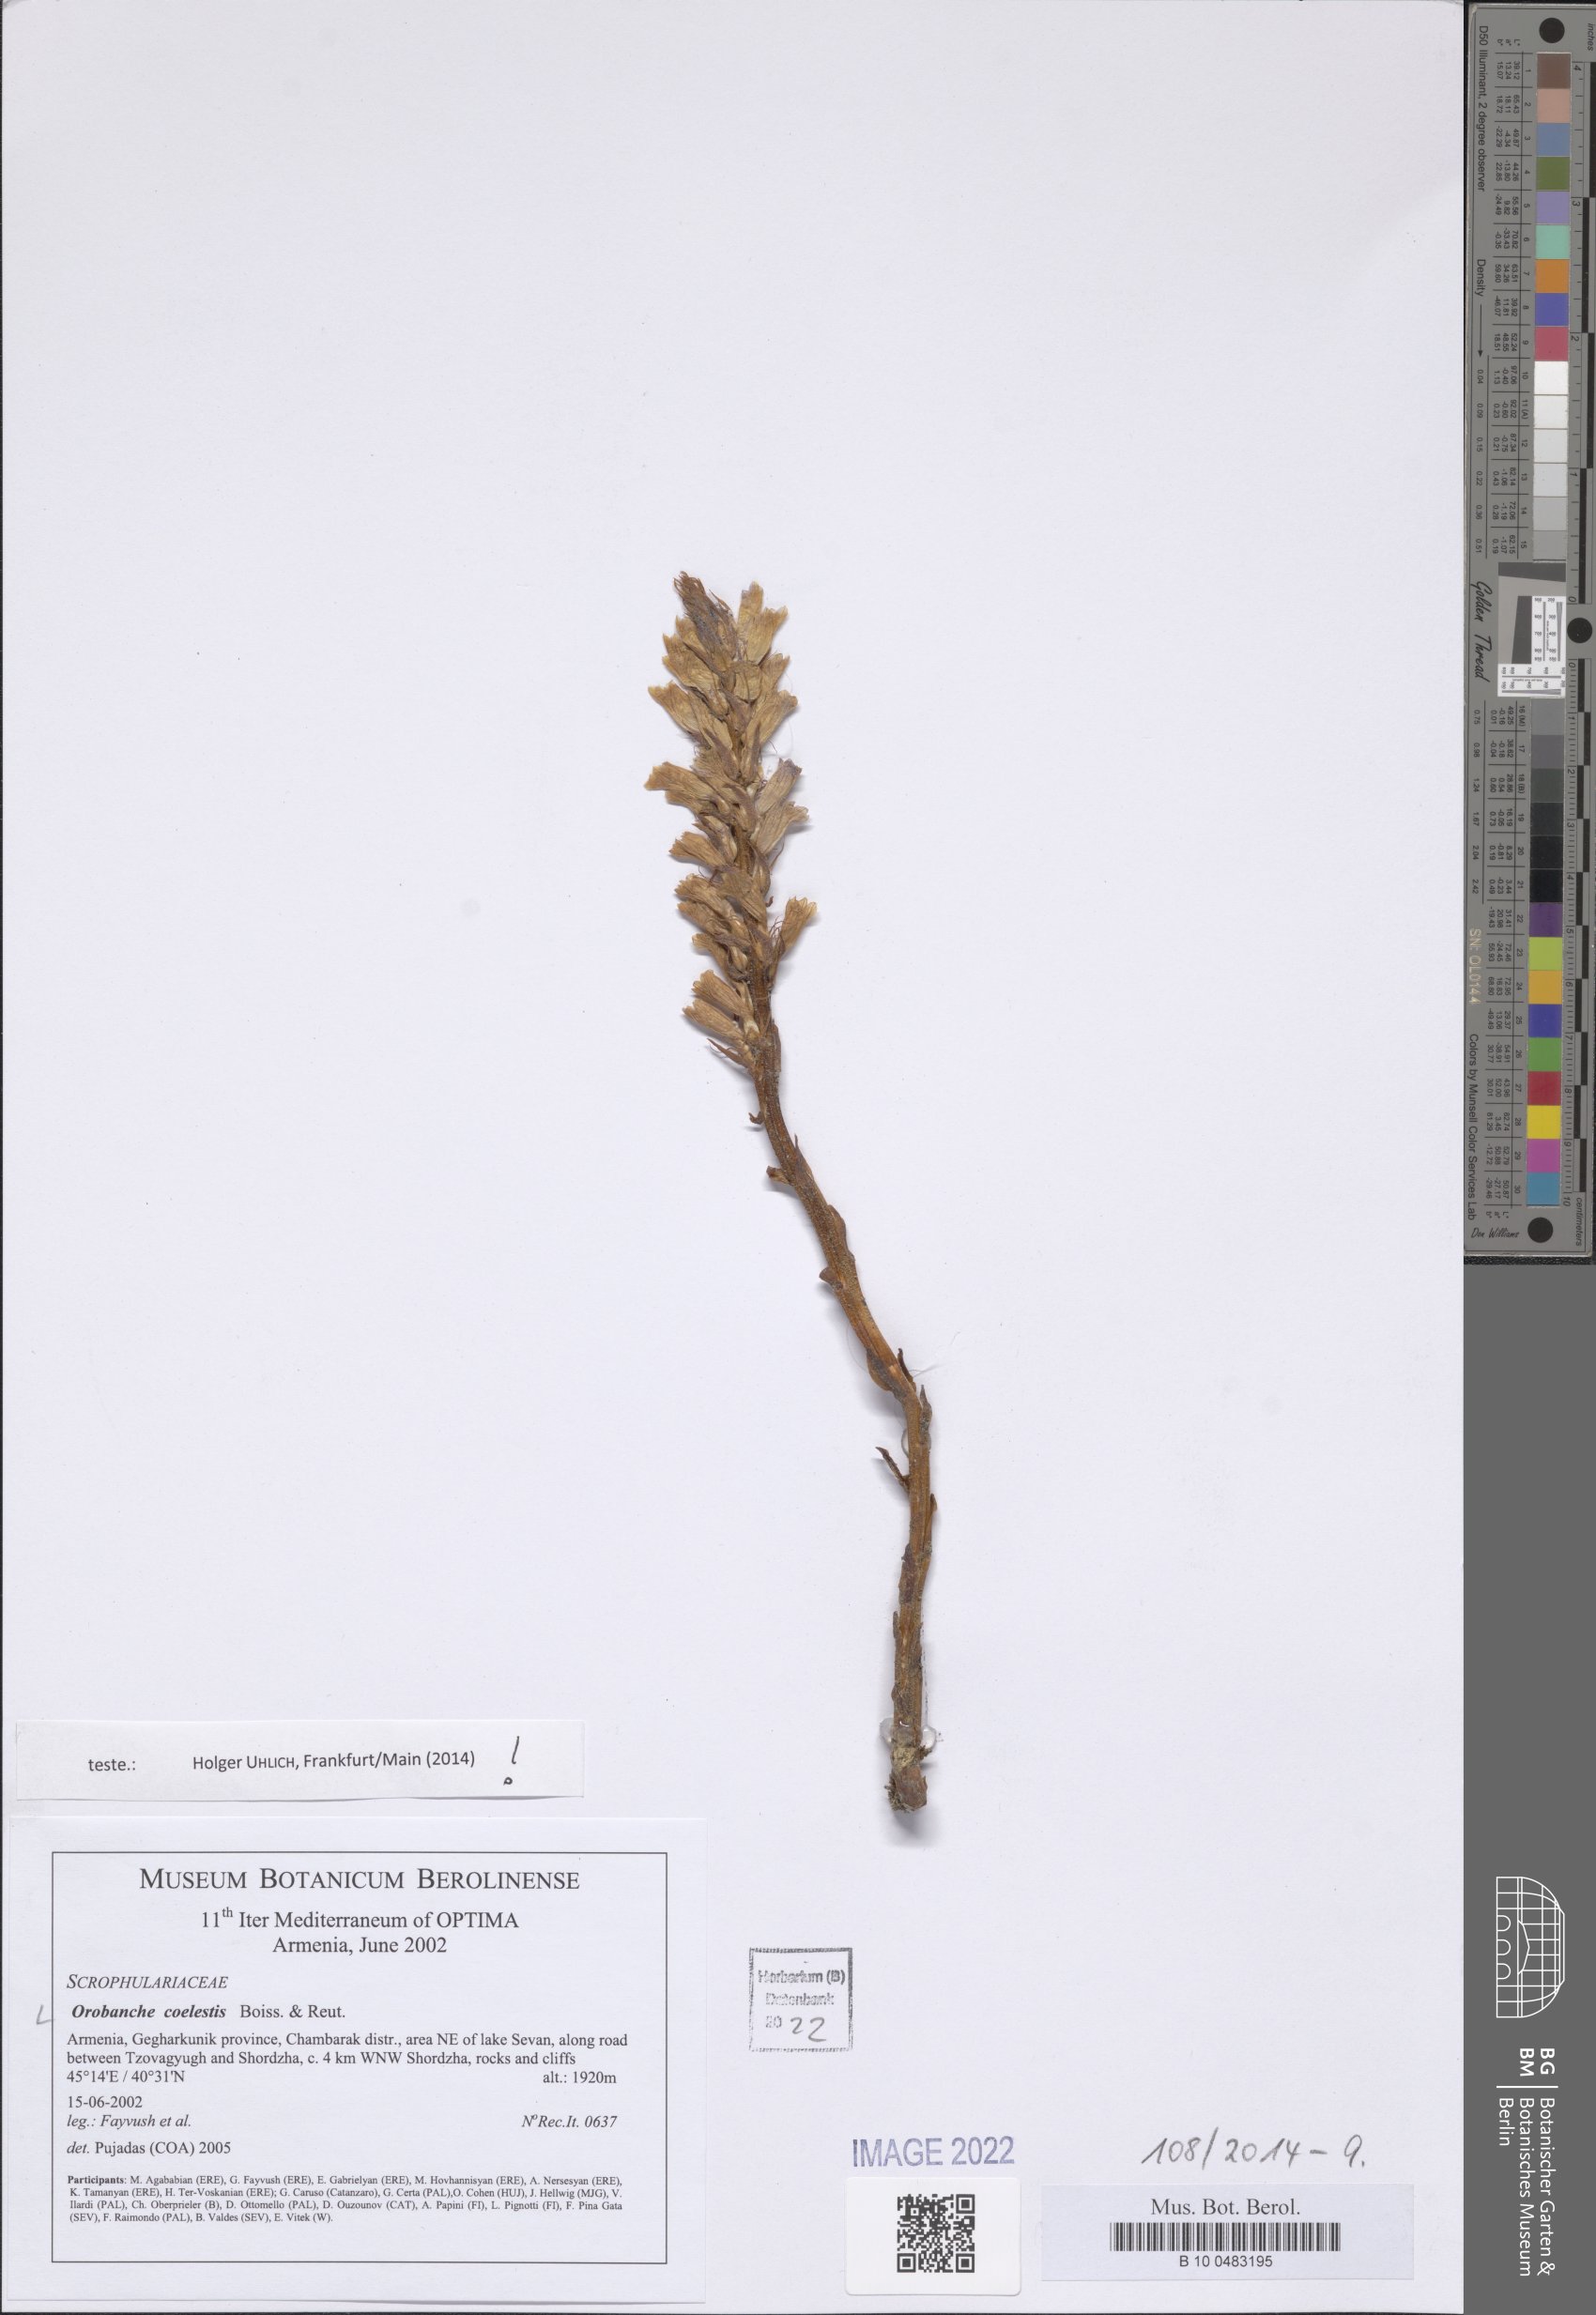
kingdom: Plantae
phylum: Tracheophyta
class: Magnoliopsida
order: Lamiales
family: Orobanchaceae
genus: Phelipanche
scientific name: Phelipanche coelestis
